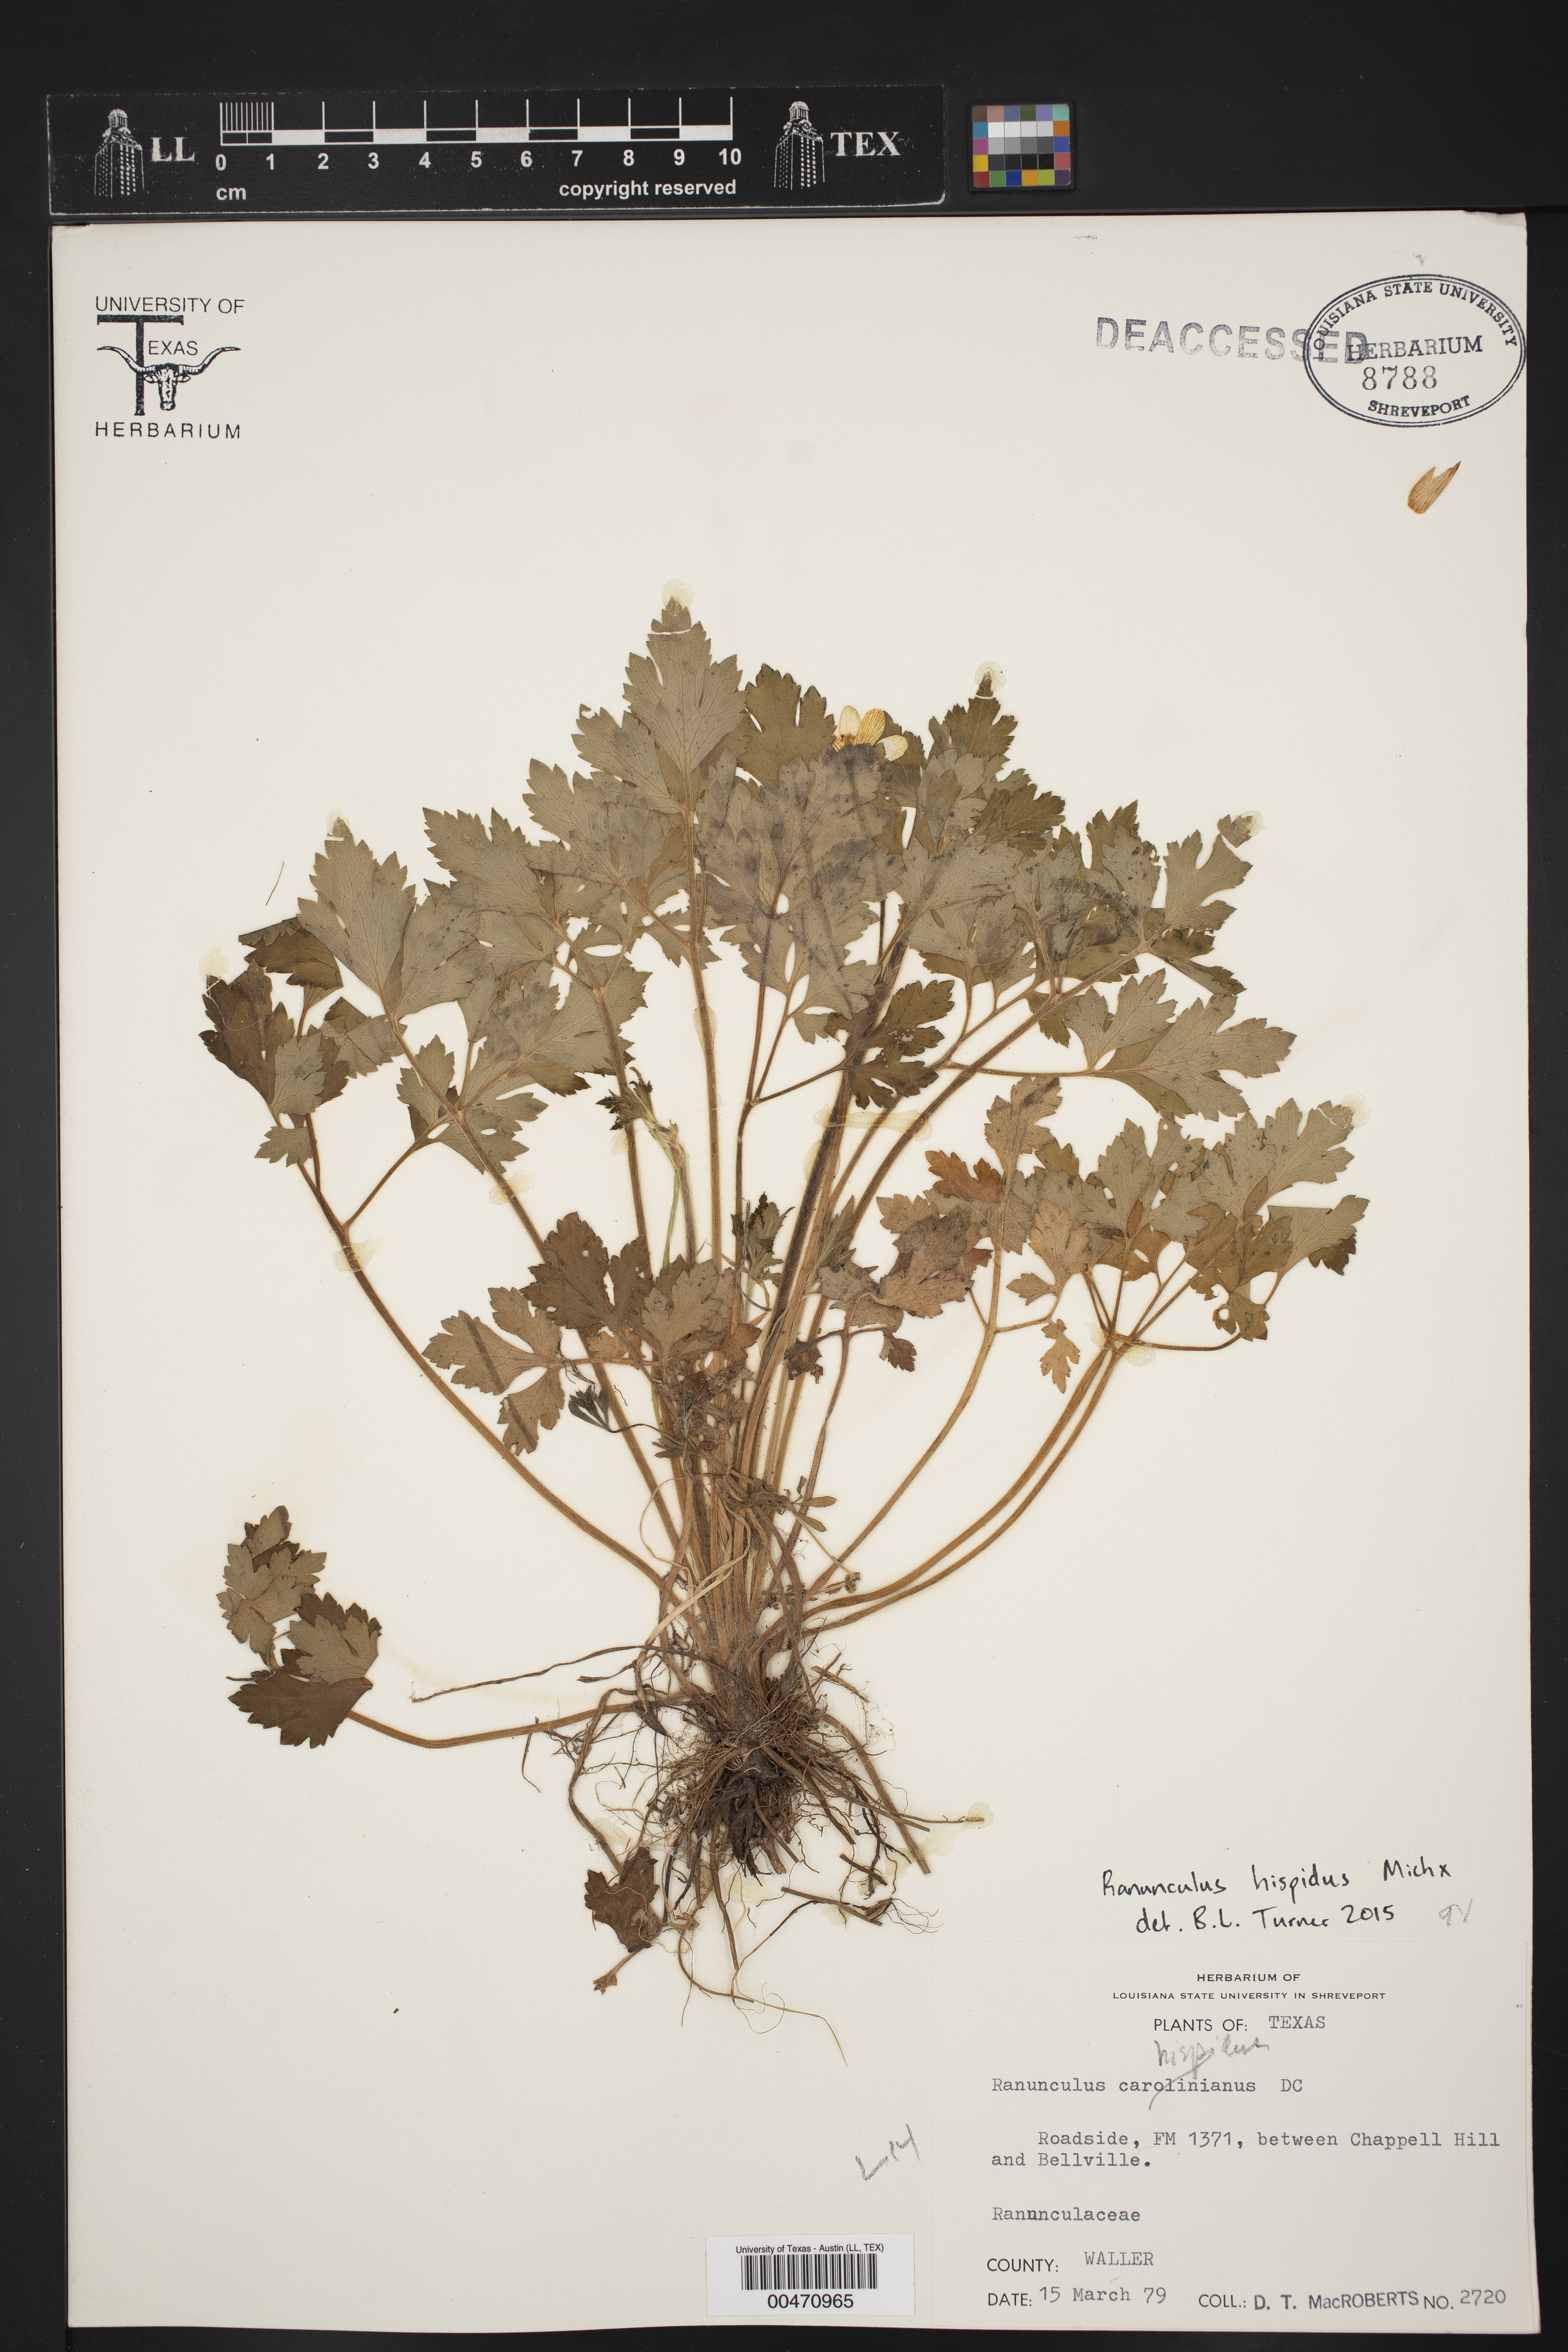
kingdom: Plantae
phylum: Tracheophyta
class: Magnoliopsida
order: Ranunculales
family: Ranunculaceae
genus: Ranunculus
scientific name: Ranunculus hispidus
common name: Bristly buttercup
